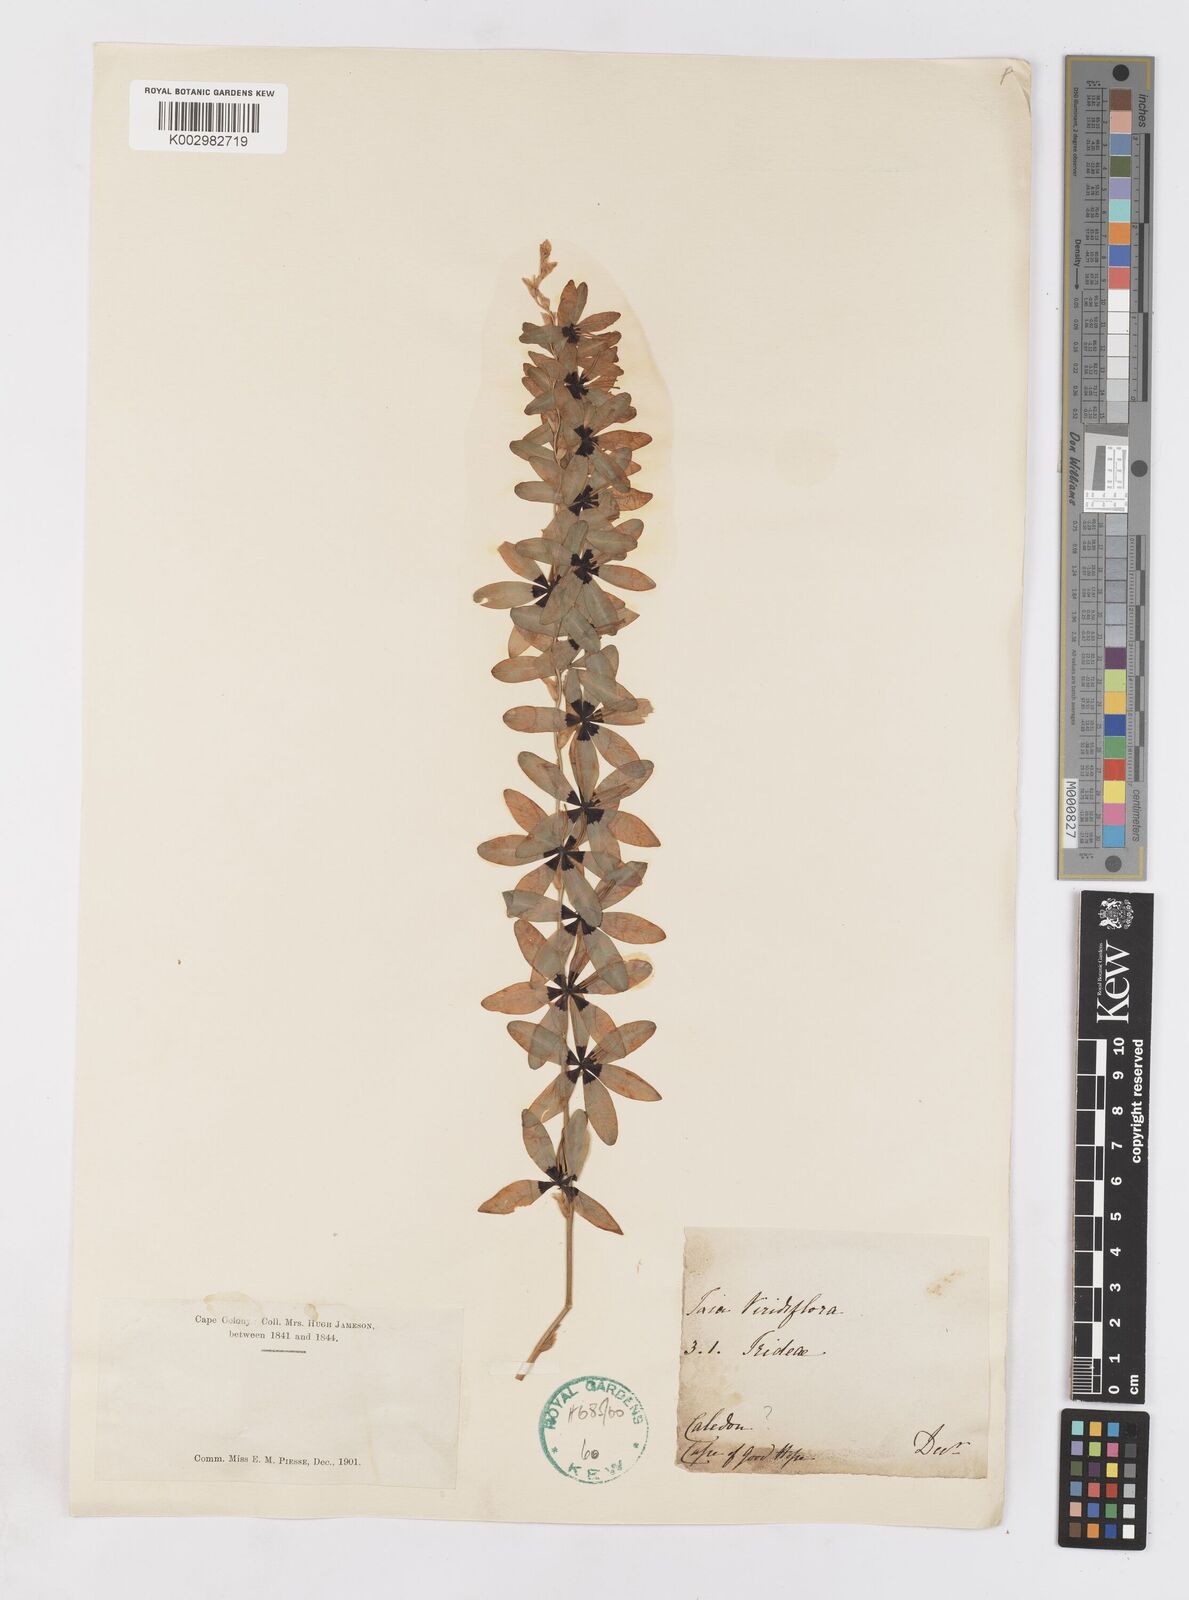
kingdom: Plantae
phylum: Tracheophyta
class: Liliopsida
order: Asparagales
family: Iridaceae
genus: Ixia
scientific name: Ixia viridiflora
